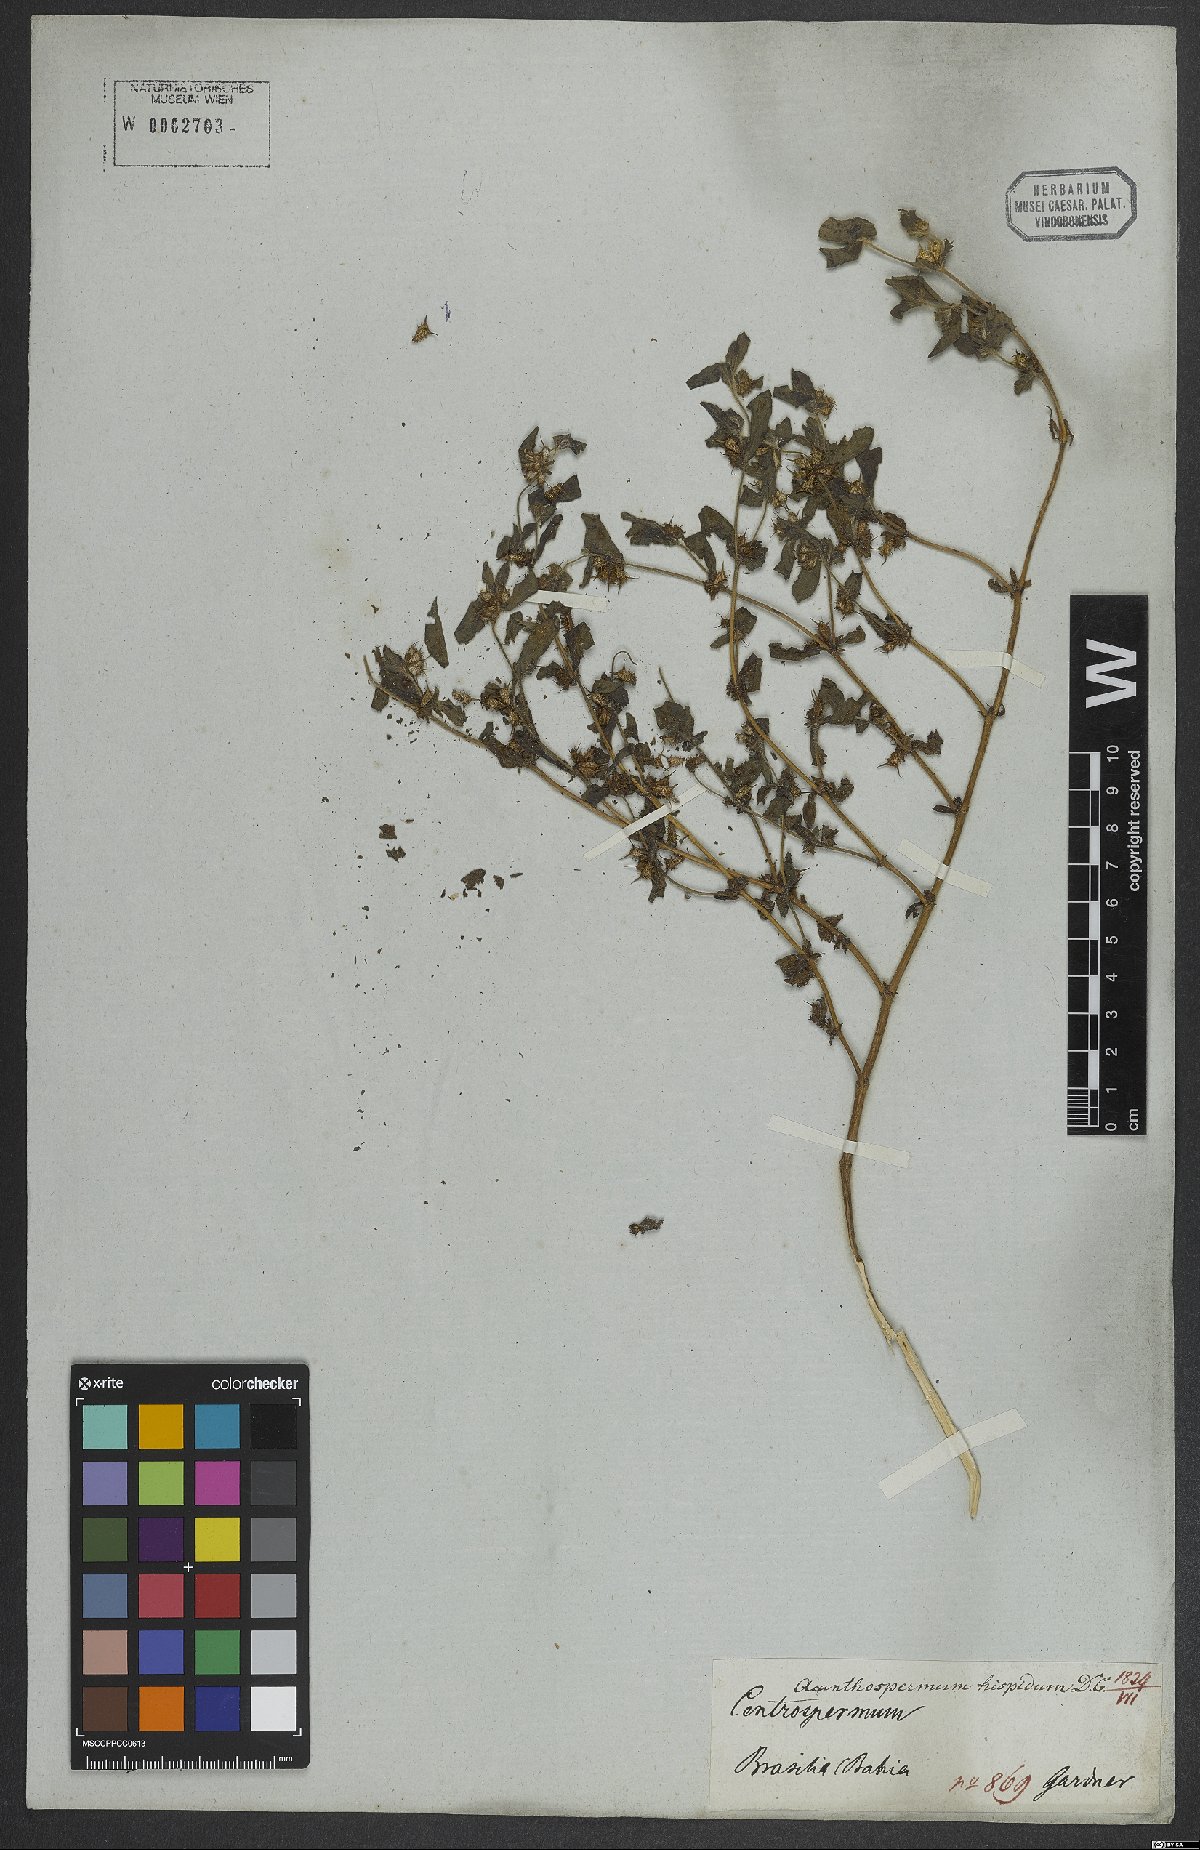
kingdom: Plantae
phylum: Tracheophyta
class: Magnoliopsida
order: Asterales
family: Asteraceae
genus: Acanthospermum
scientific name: Acanthospermum hispidum
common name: Hispid starbur
